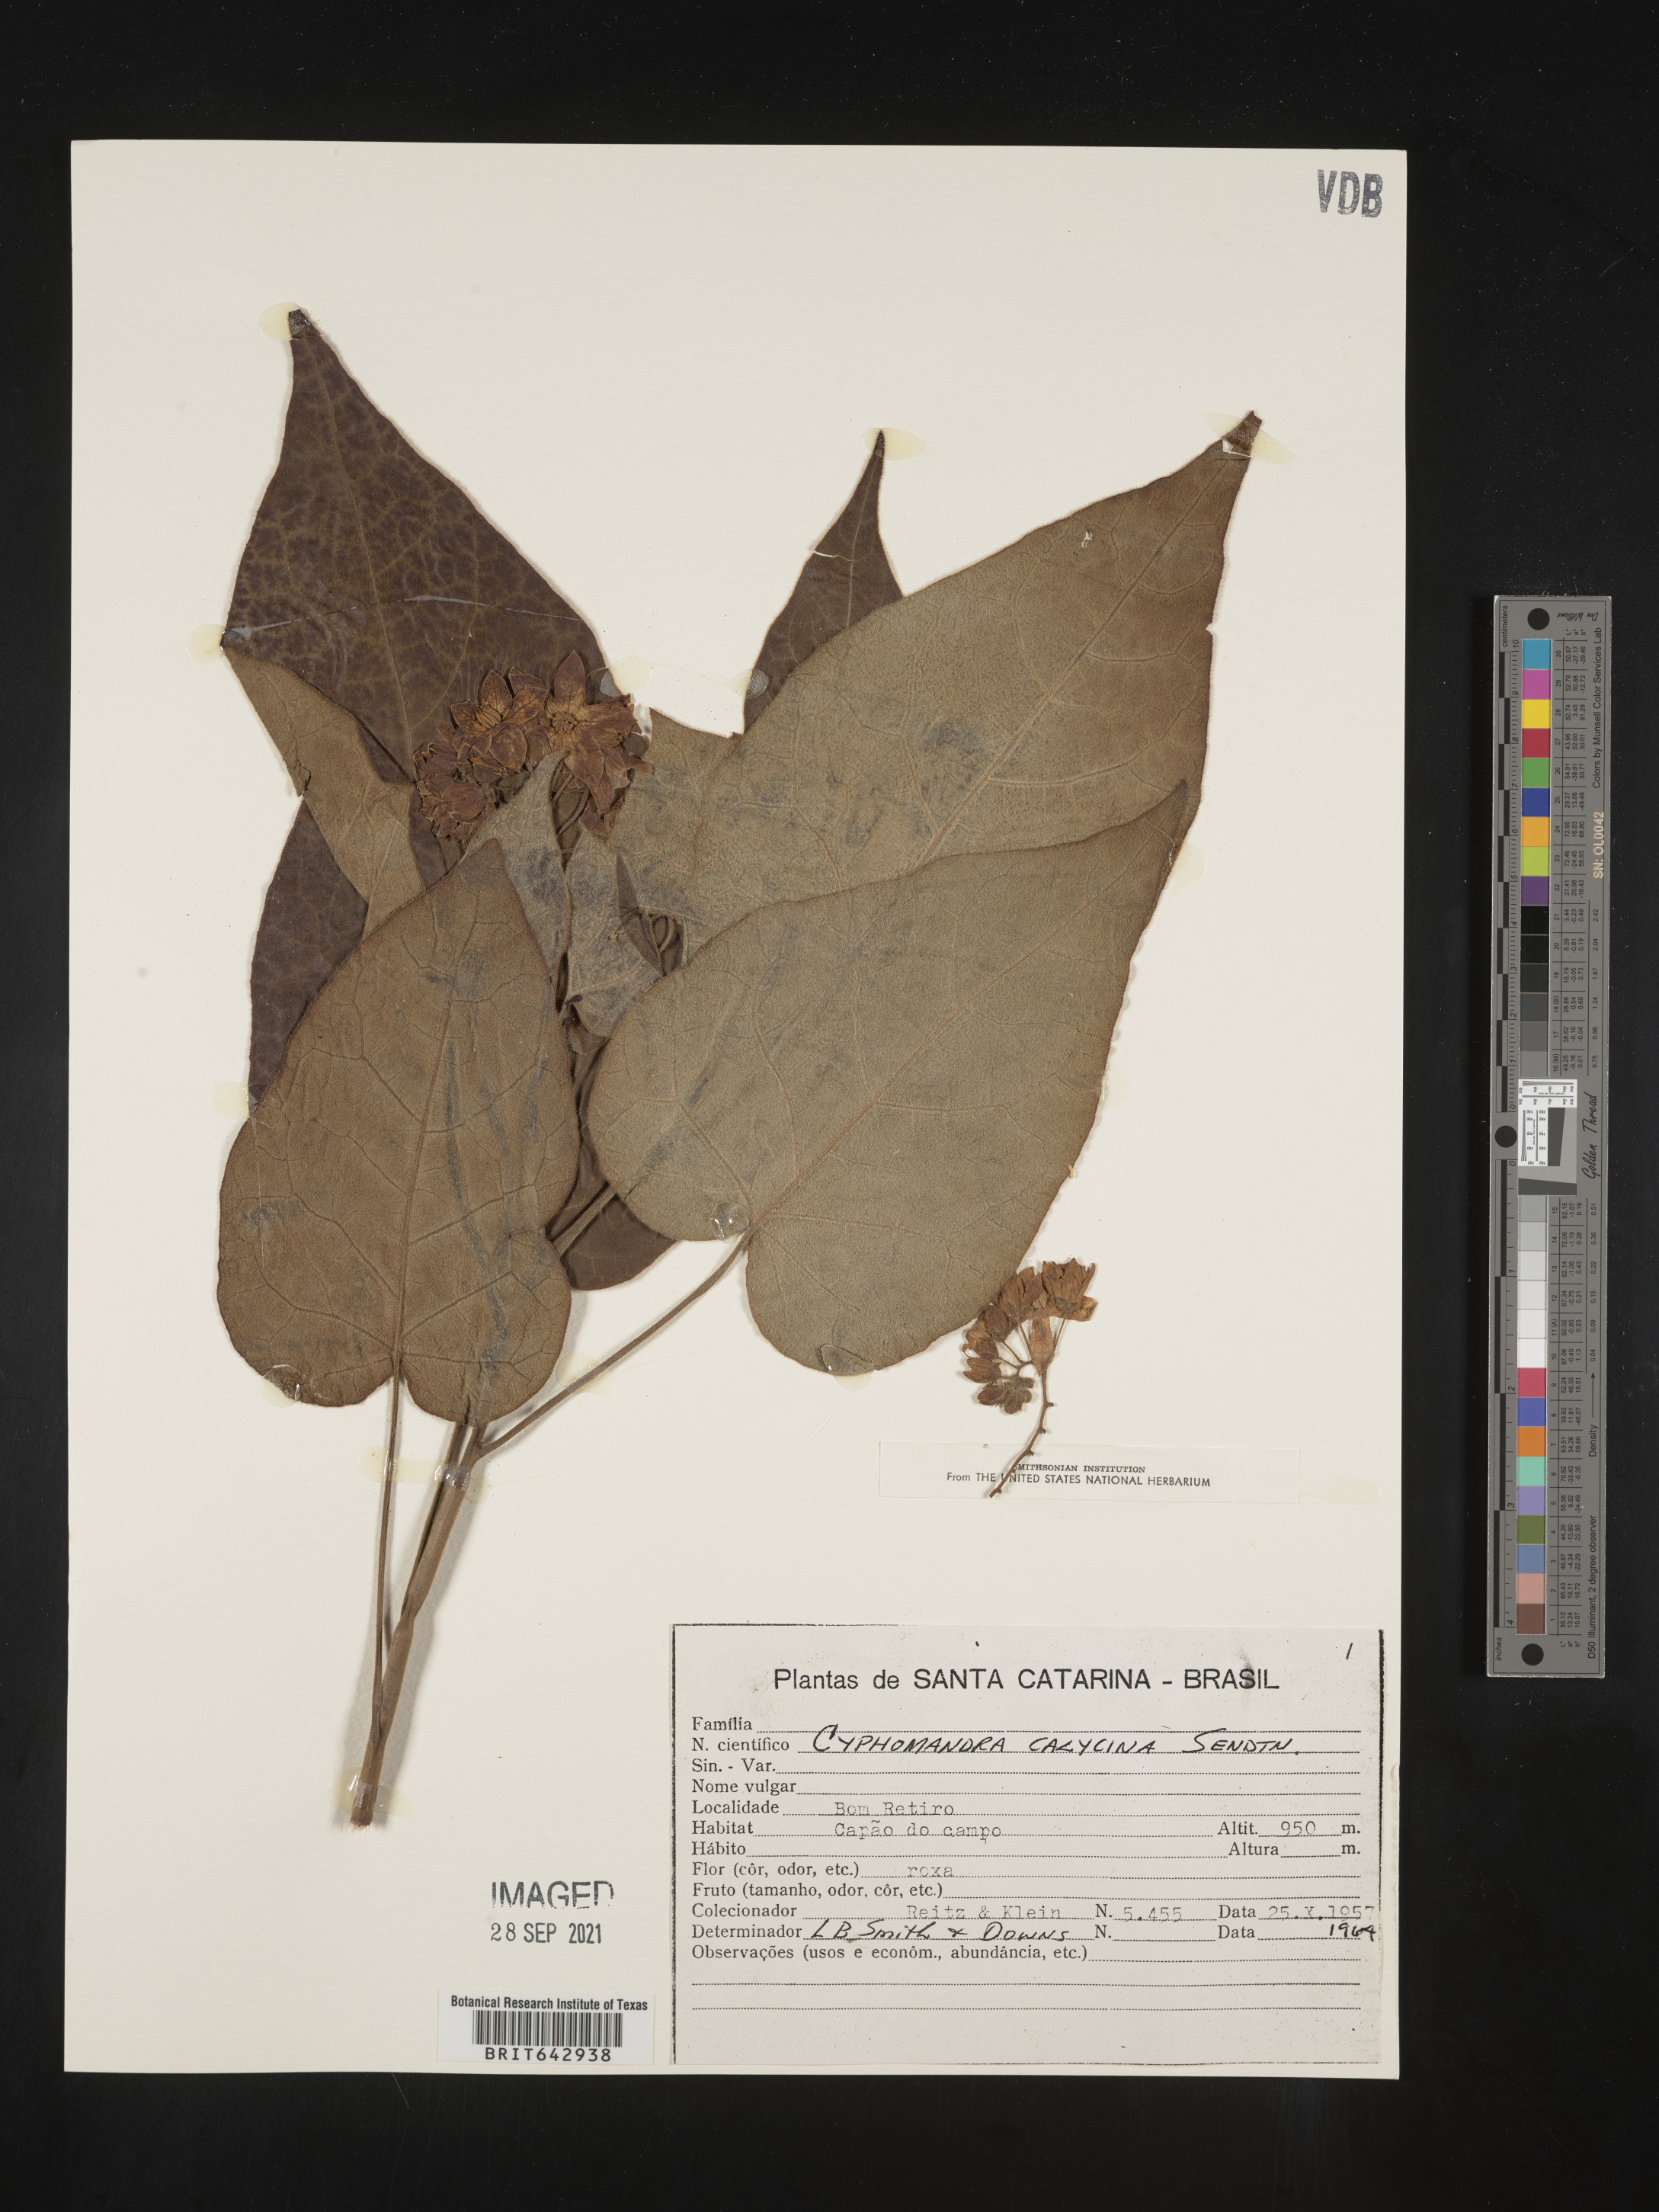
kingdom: Plantae
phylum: Tracheophyta
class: Magnoliopsida
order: Solanales
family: Solanaceae
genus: Solanum
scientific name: Solanum
